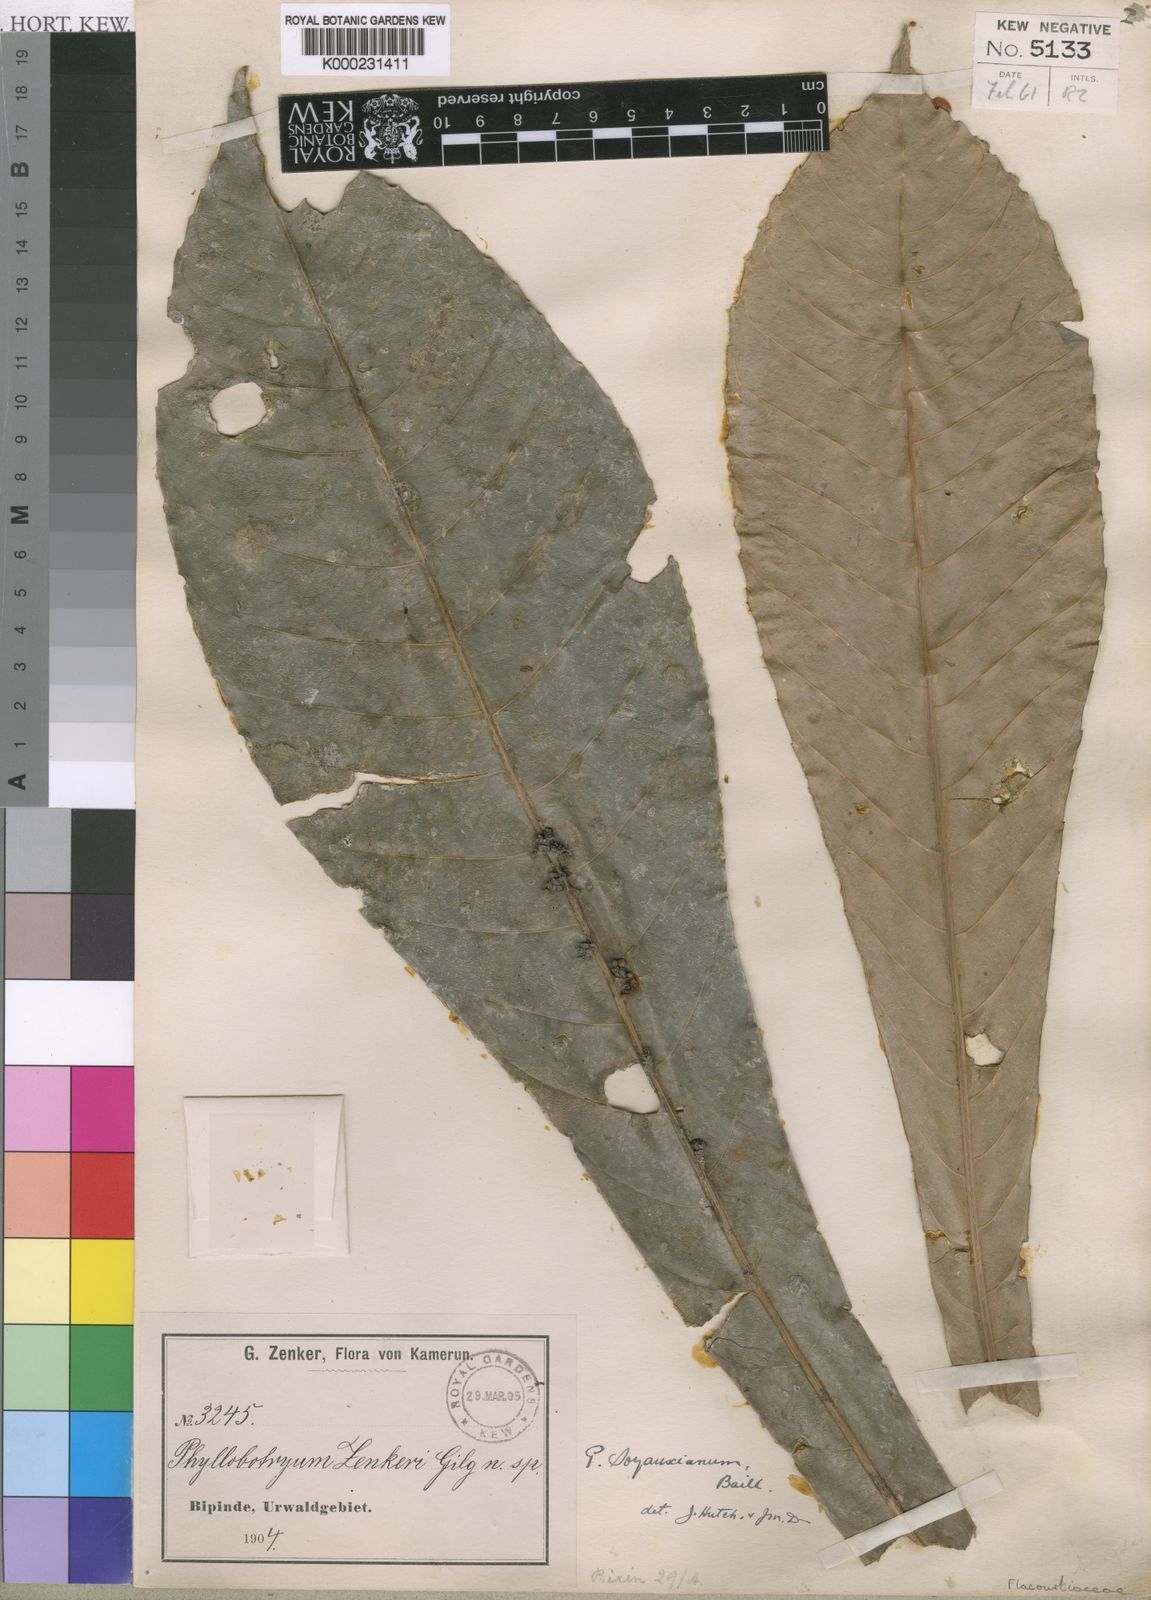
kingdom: Plantae
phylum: Tracheophyta
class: Magnoliopsida
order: Malpighiales
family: Salicaceae
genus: Phyllobotryon
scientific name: Phyllobotryon
